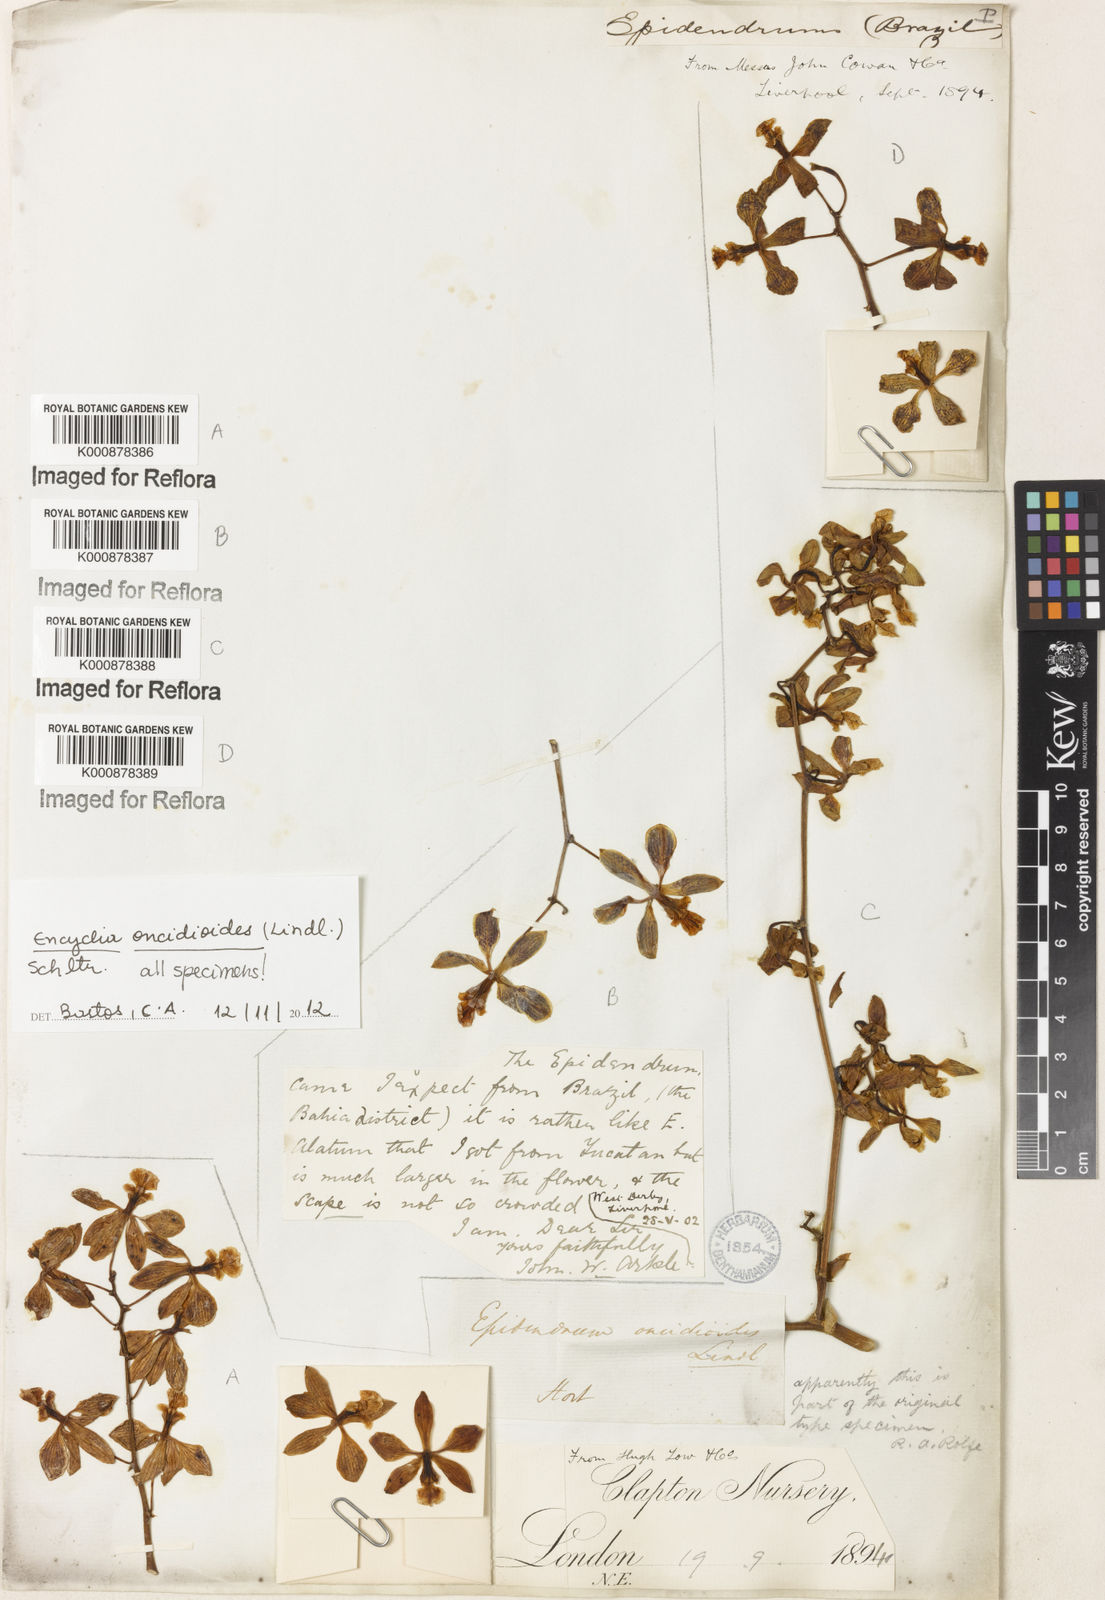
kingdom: Plantae
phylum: Tracheophyta
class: Liliopsida
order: Asparagales
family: Orchidaceae
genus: Encyclia
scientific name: Encyclia oncidioides
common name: Heavyfruit butterfly orchid
